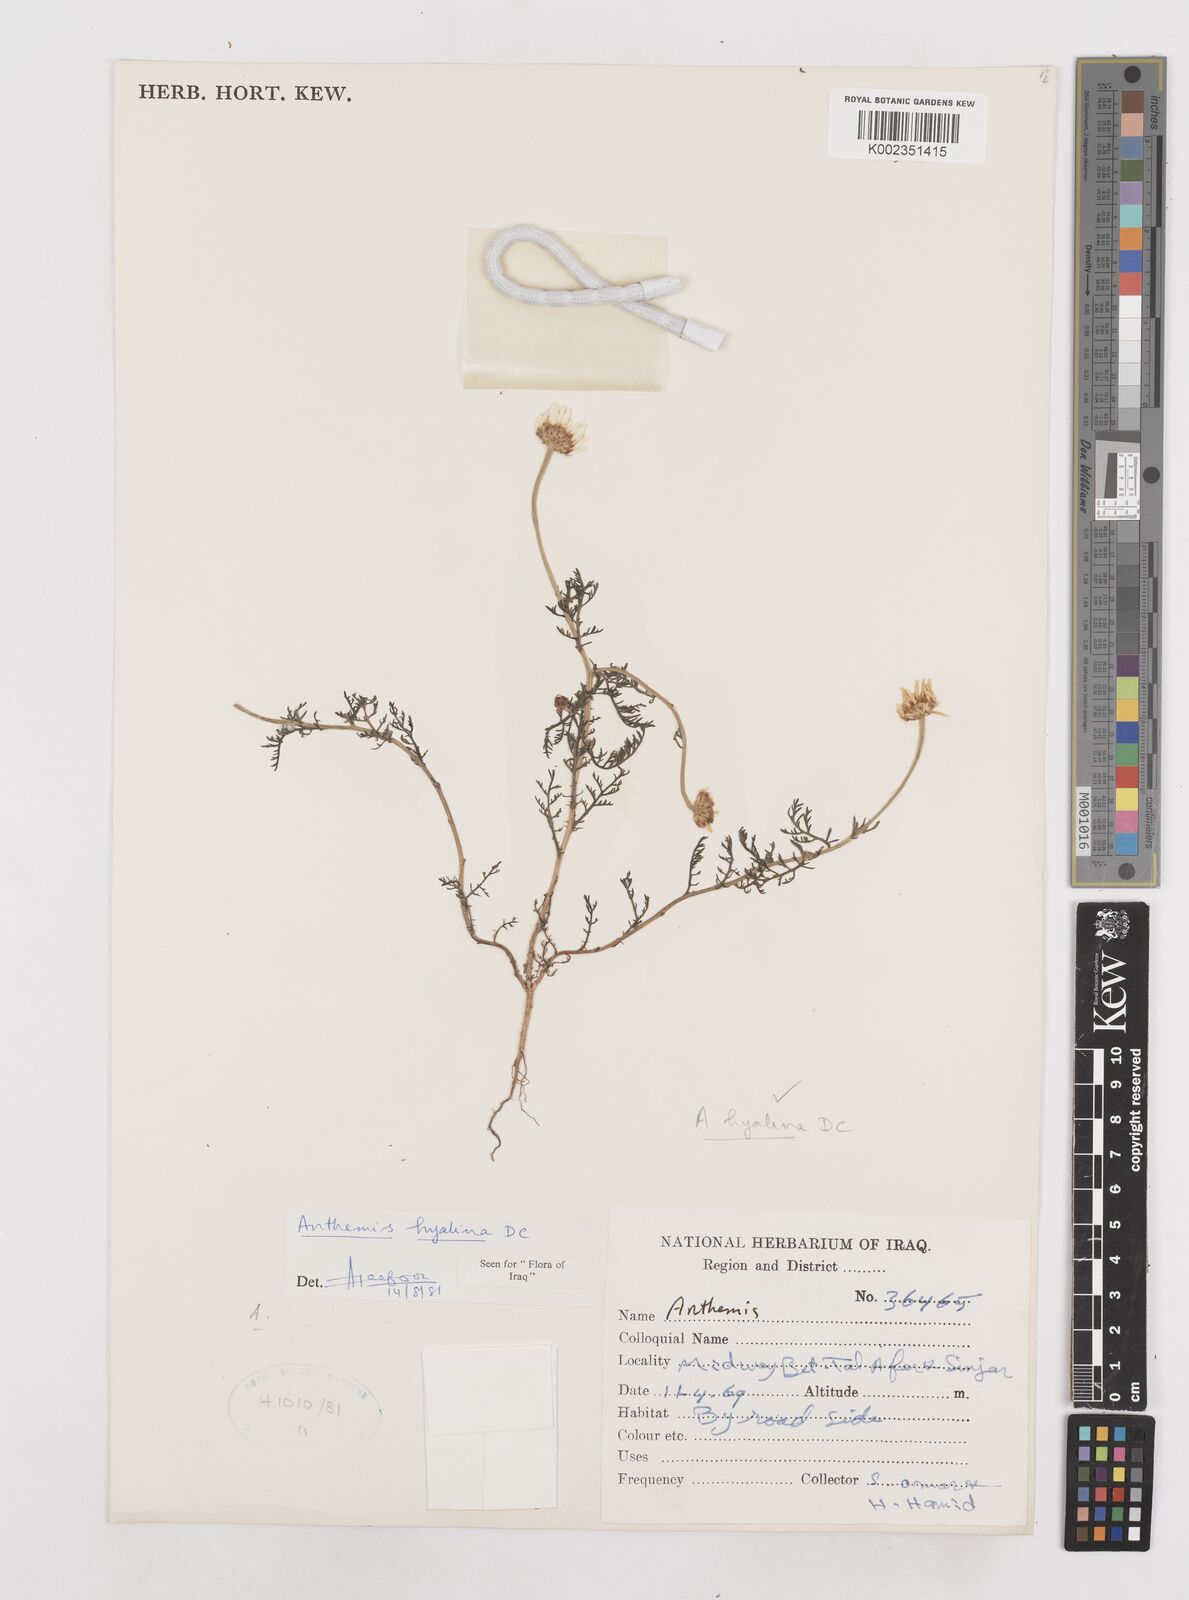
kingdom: Plantae
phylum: Tracheophyta
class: Magnoliopsida
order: Asterales
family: Asteraceae
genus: Anthemis
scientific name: Anthemis hyalina
